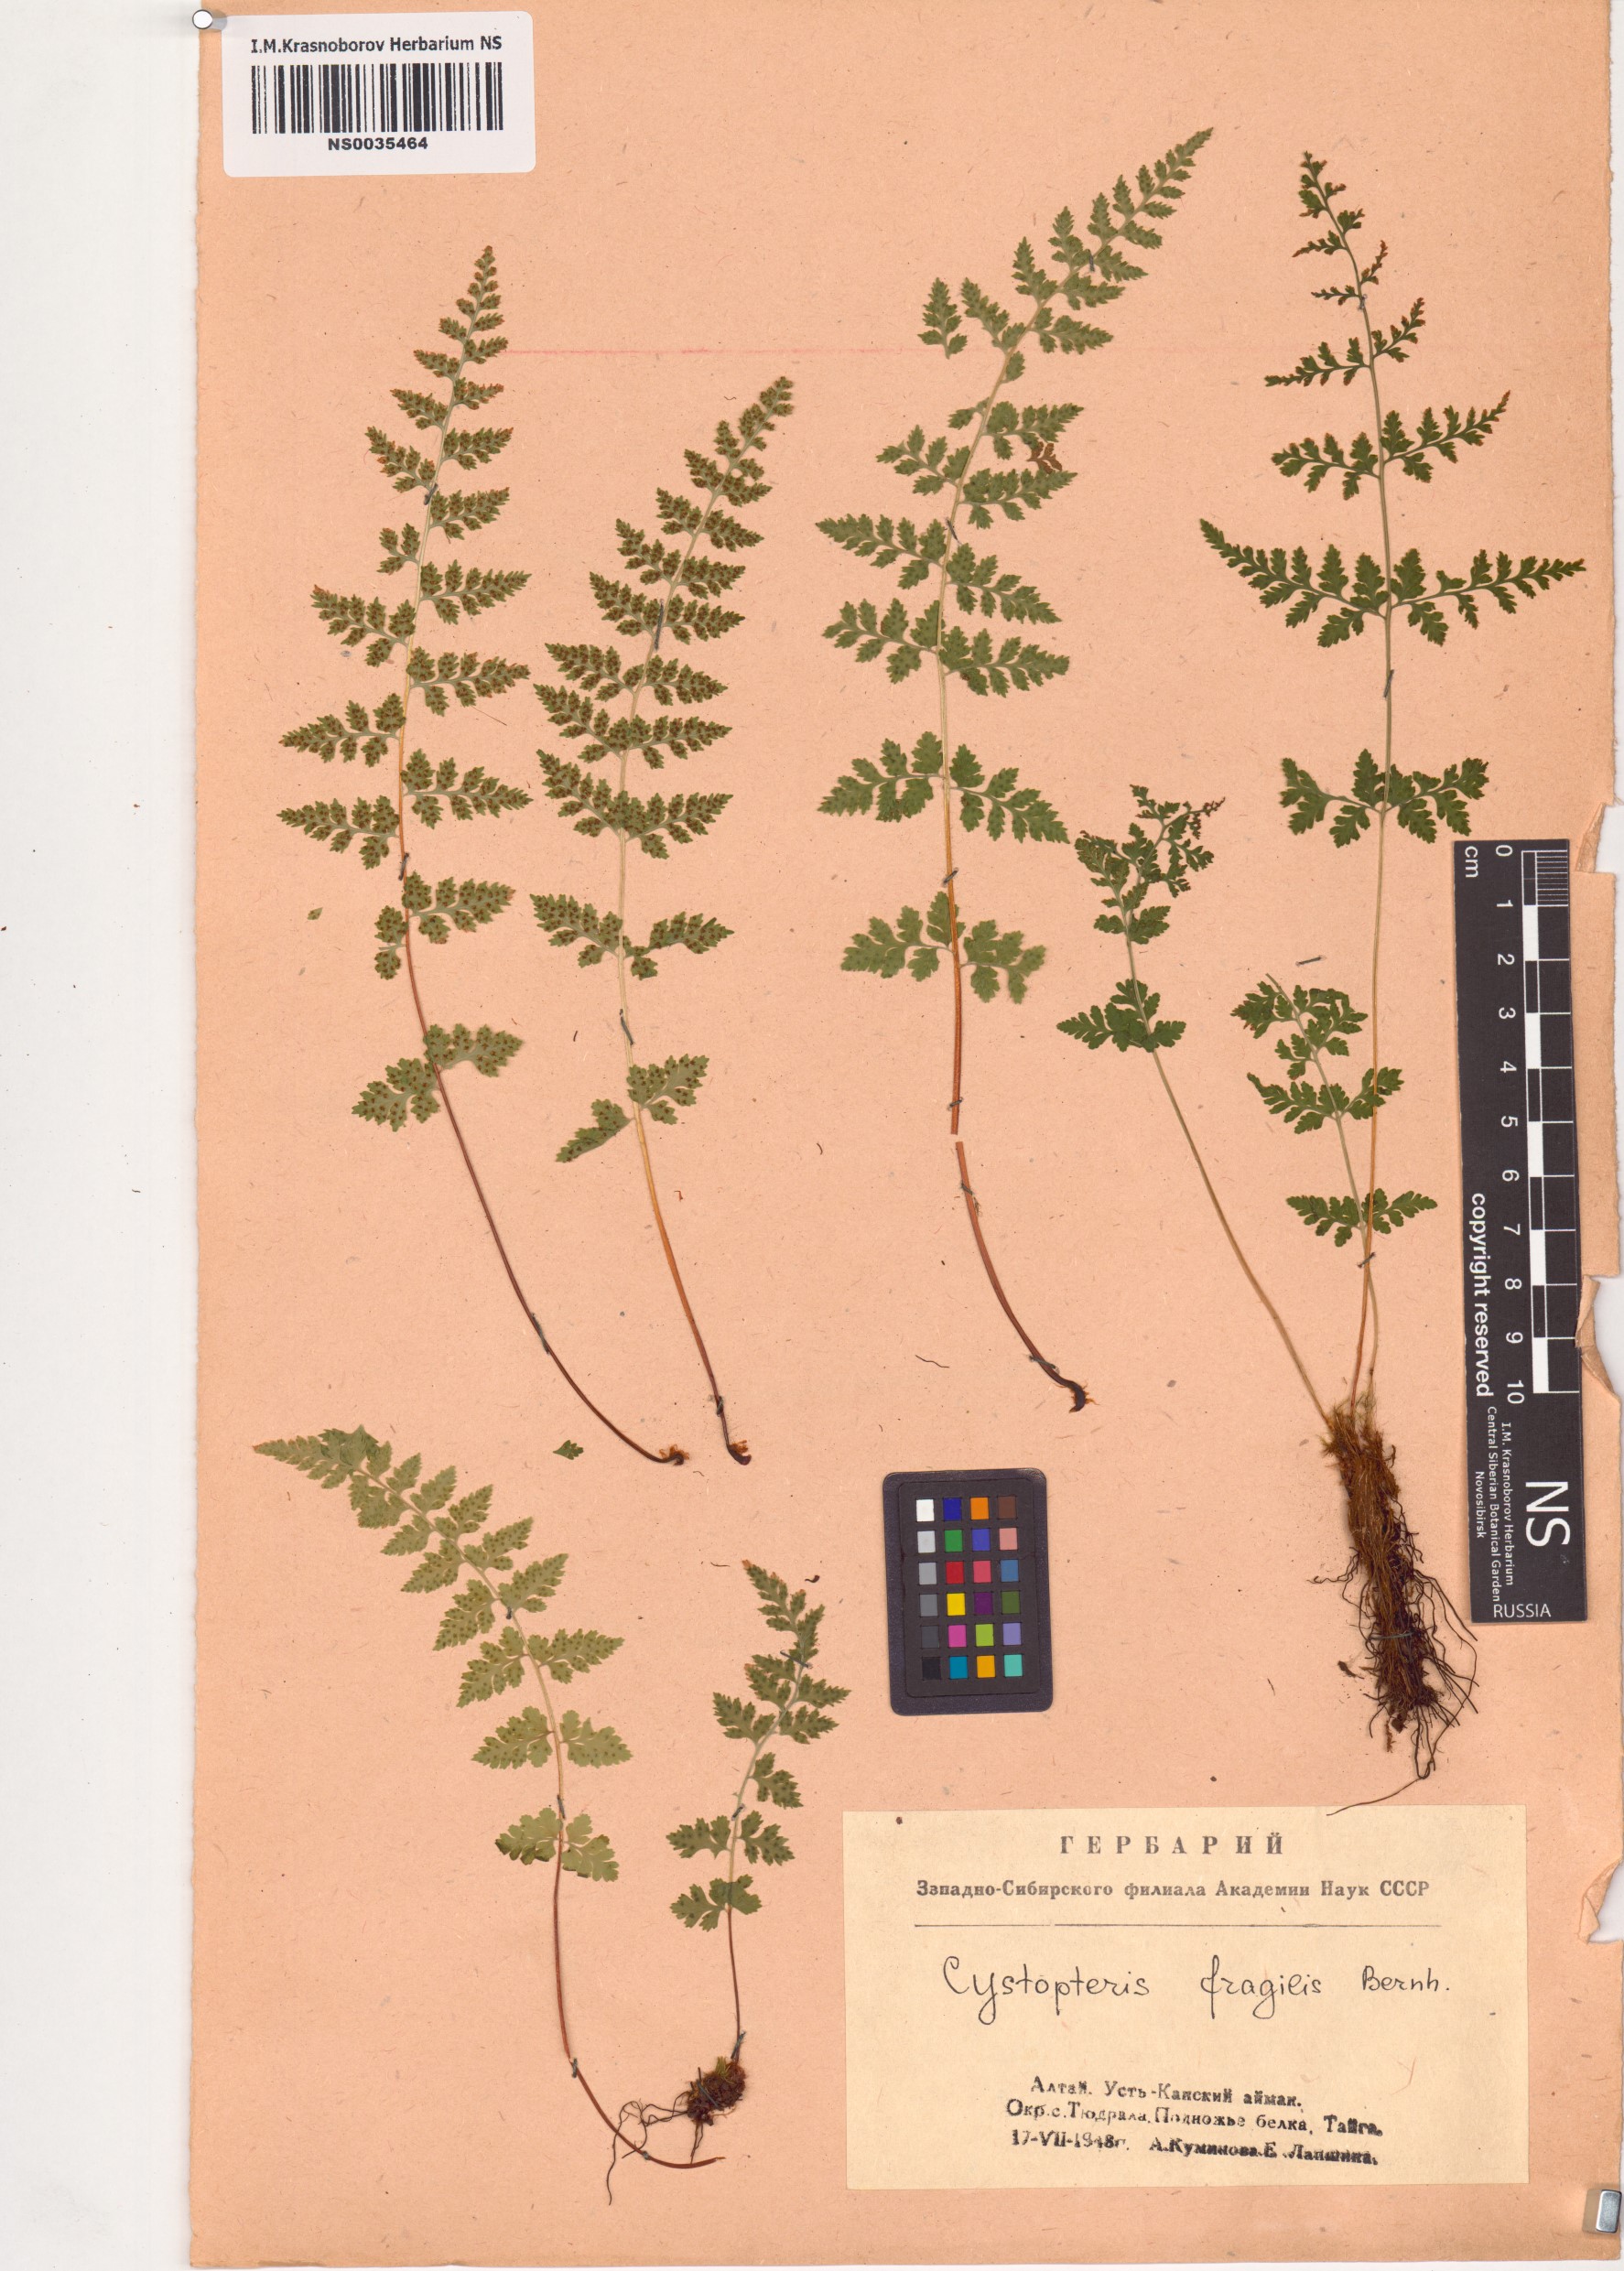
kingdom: Plantae
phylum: Tracheophyta
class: Polypodiopsida
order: Polypodiales
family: Cystopteridaceae
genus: Cystopteris
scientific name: Cystopteris fragilis
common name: Brittle bladder fern
